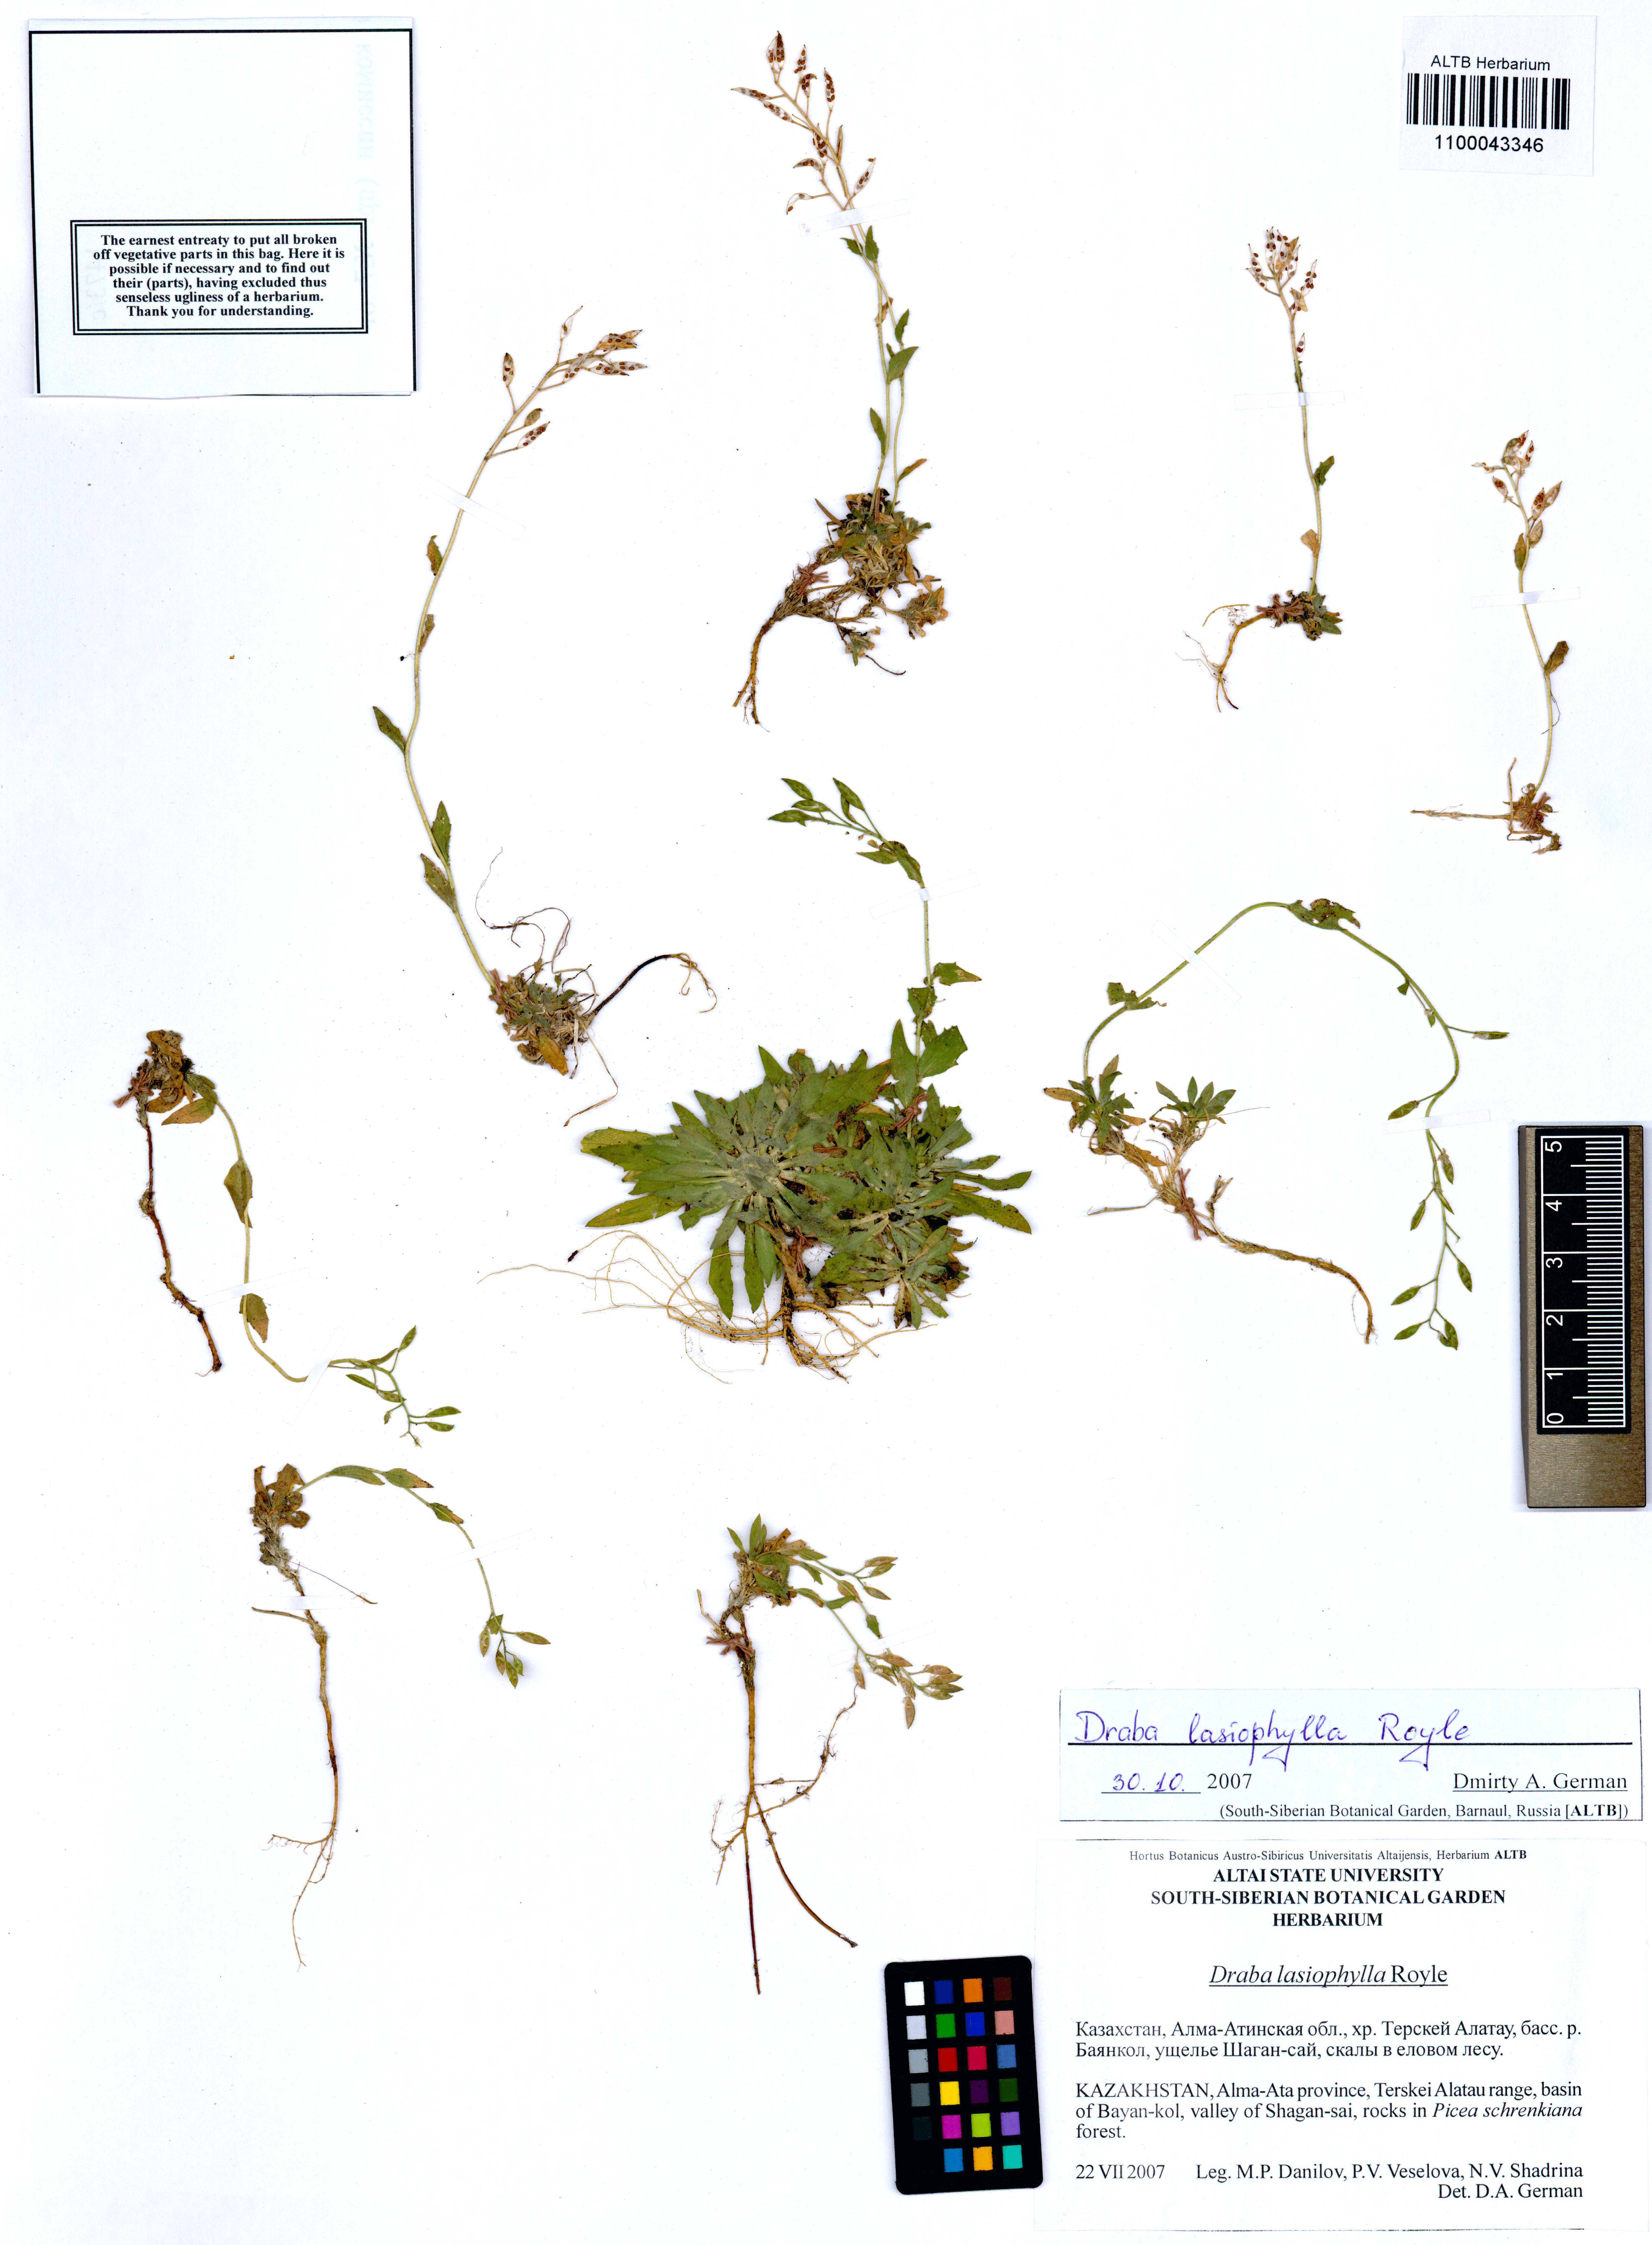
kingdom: Plantae
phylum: Tracheophyta
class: Magnoliopsida
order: Brassicales
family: Brassicaceae
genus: Draba
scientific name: Draba lasiophylla
